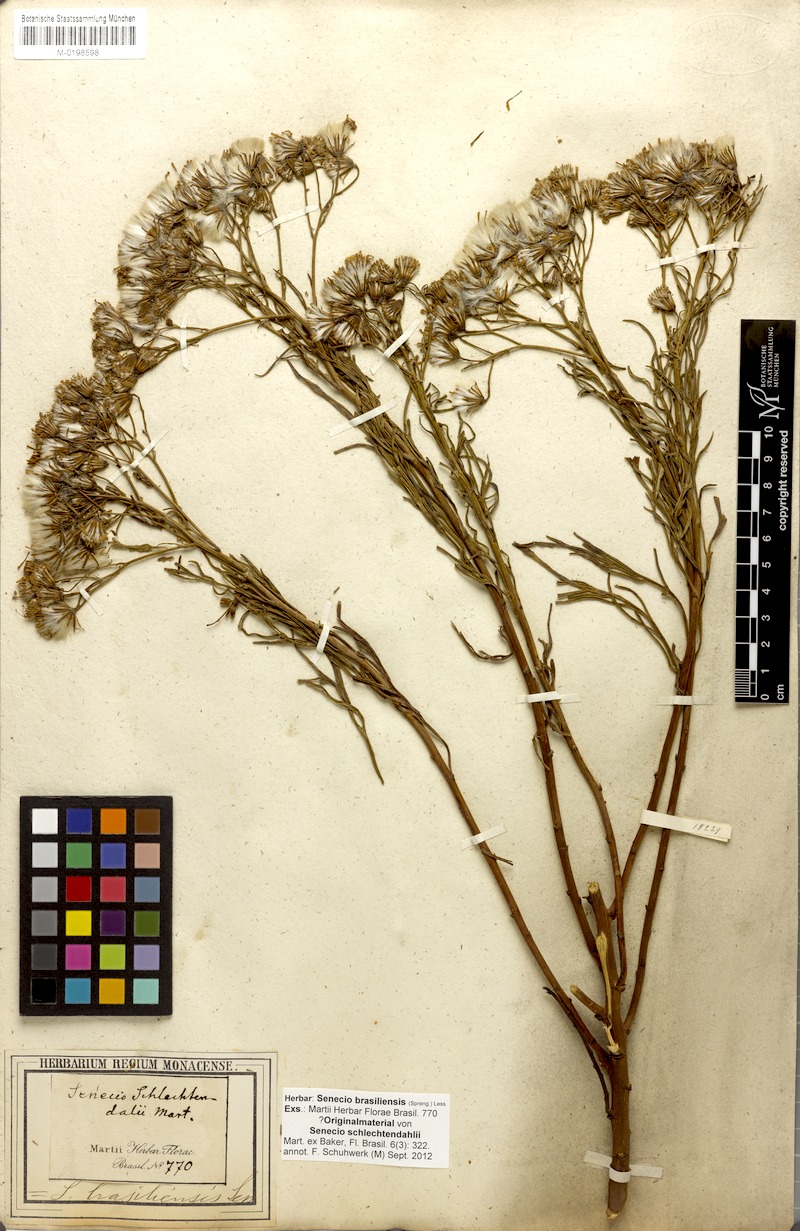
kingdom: Plantae
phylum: Tracheophyta
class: Magnoliopsida
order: Asterales
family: Asteraceae
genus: Senecio
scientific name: Senecio brasiliensis
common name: Hemp-leaf ragwort
